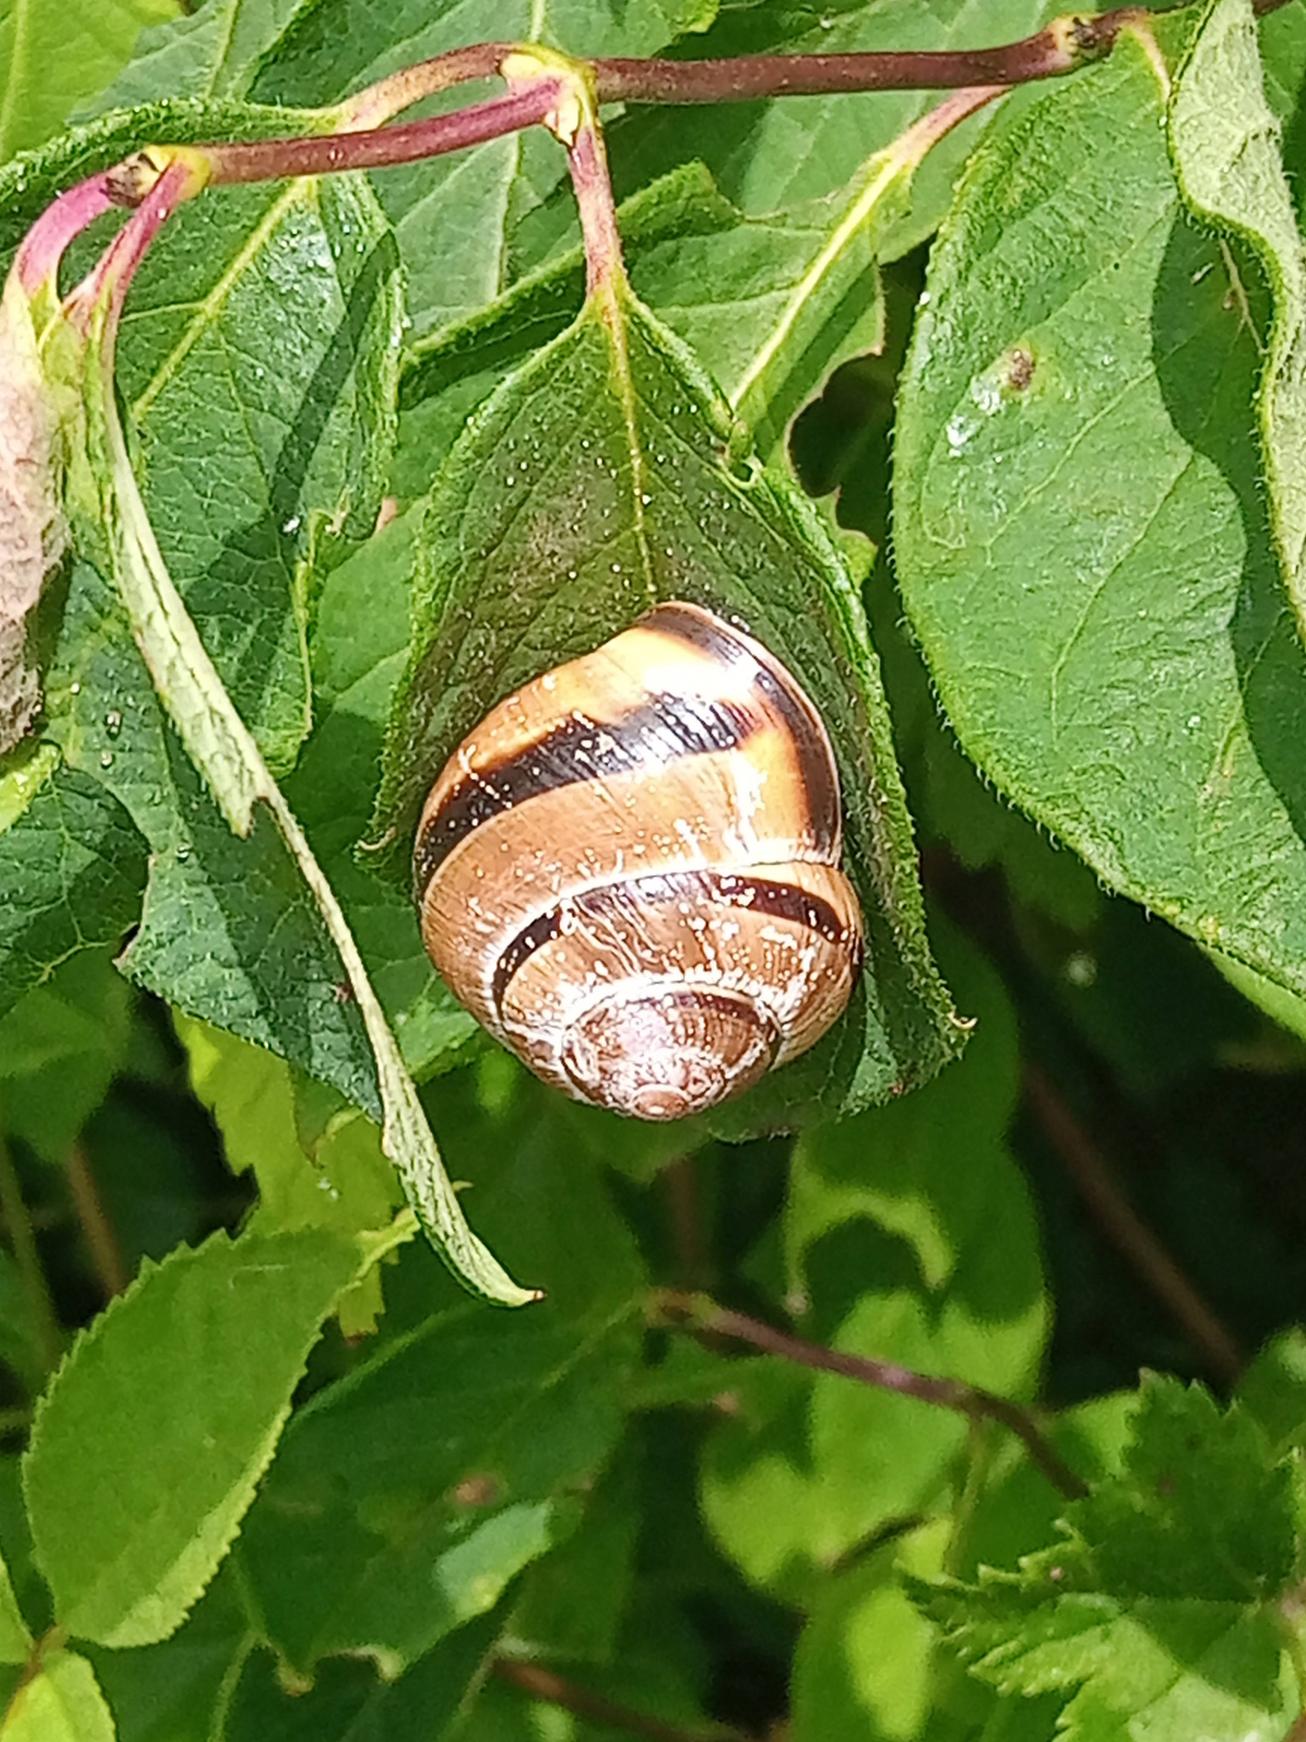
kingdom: Animalia
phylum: Mollusca
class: Gastropoda
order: Stylommatophora
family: Helicidae
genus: Cepaea
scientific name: Cepaea nemoralis
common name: Lundsnegl
